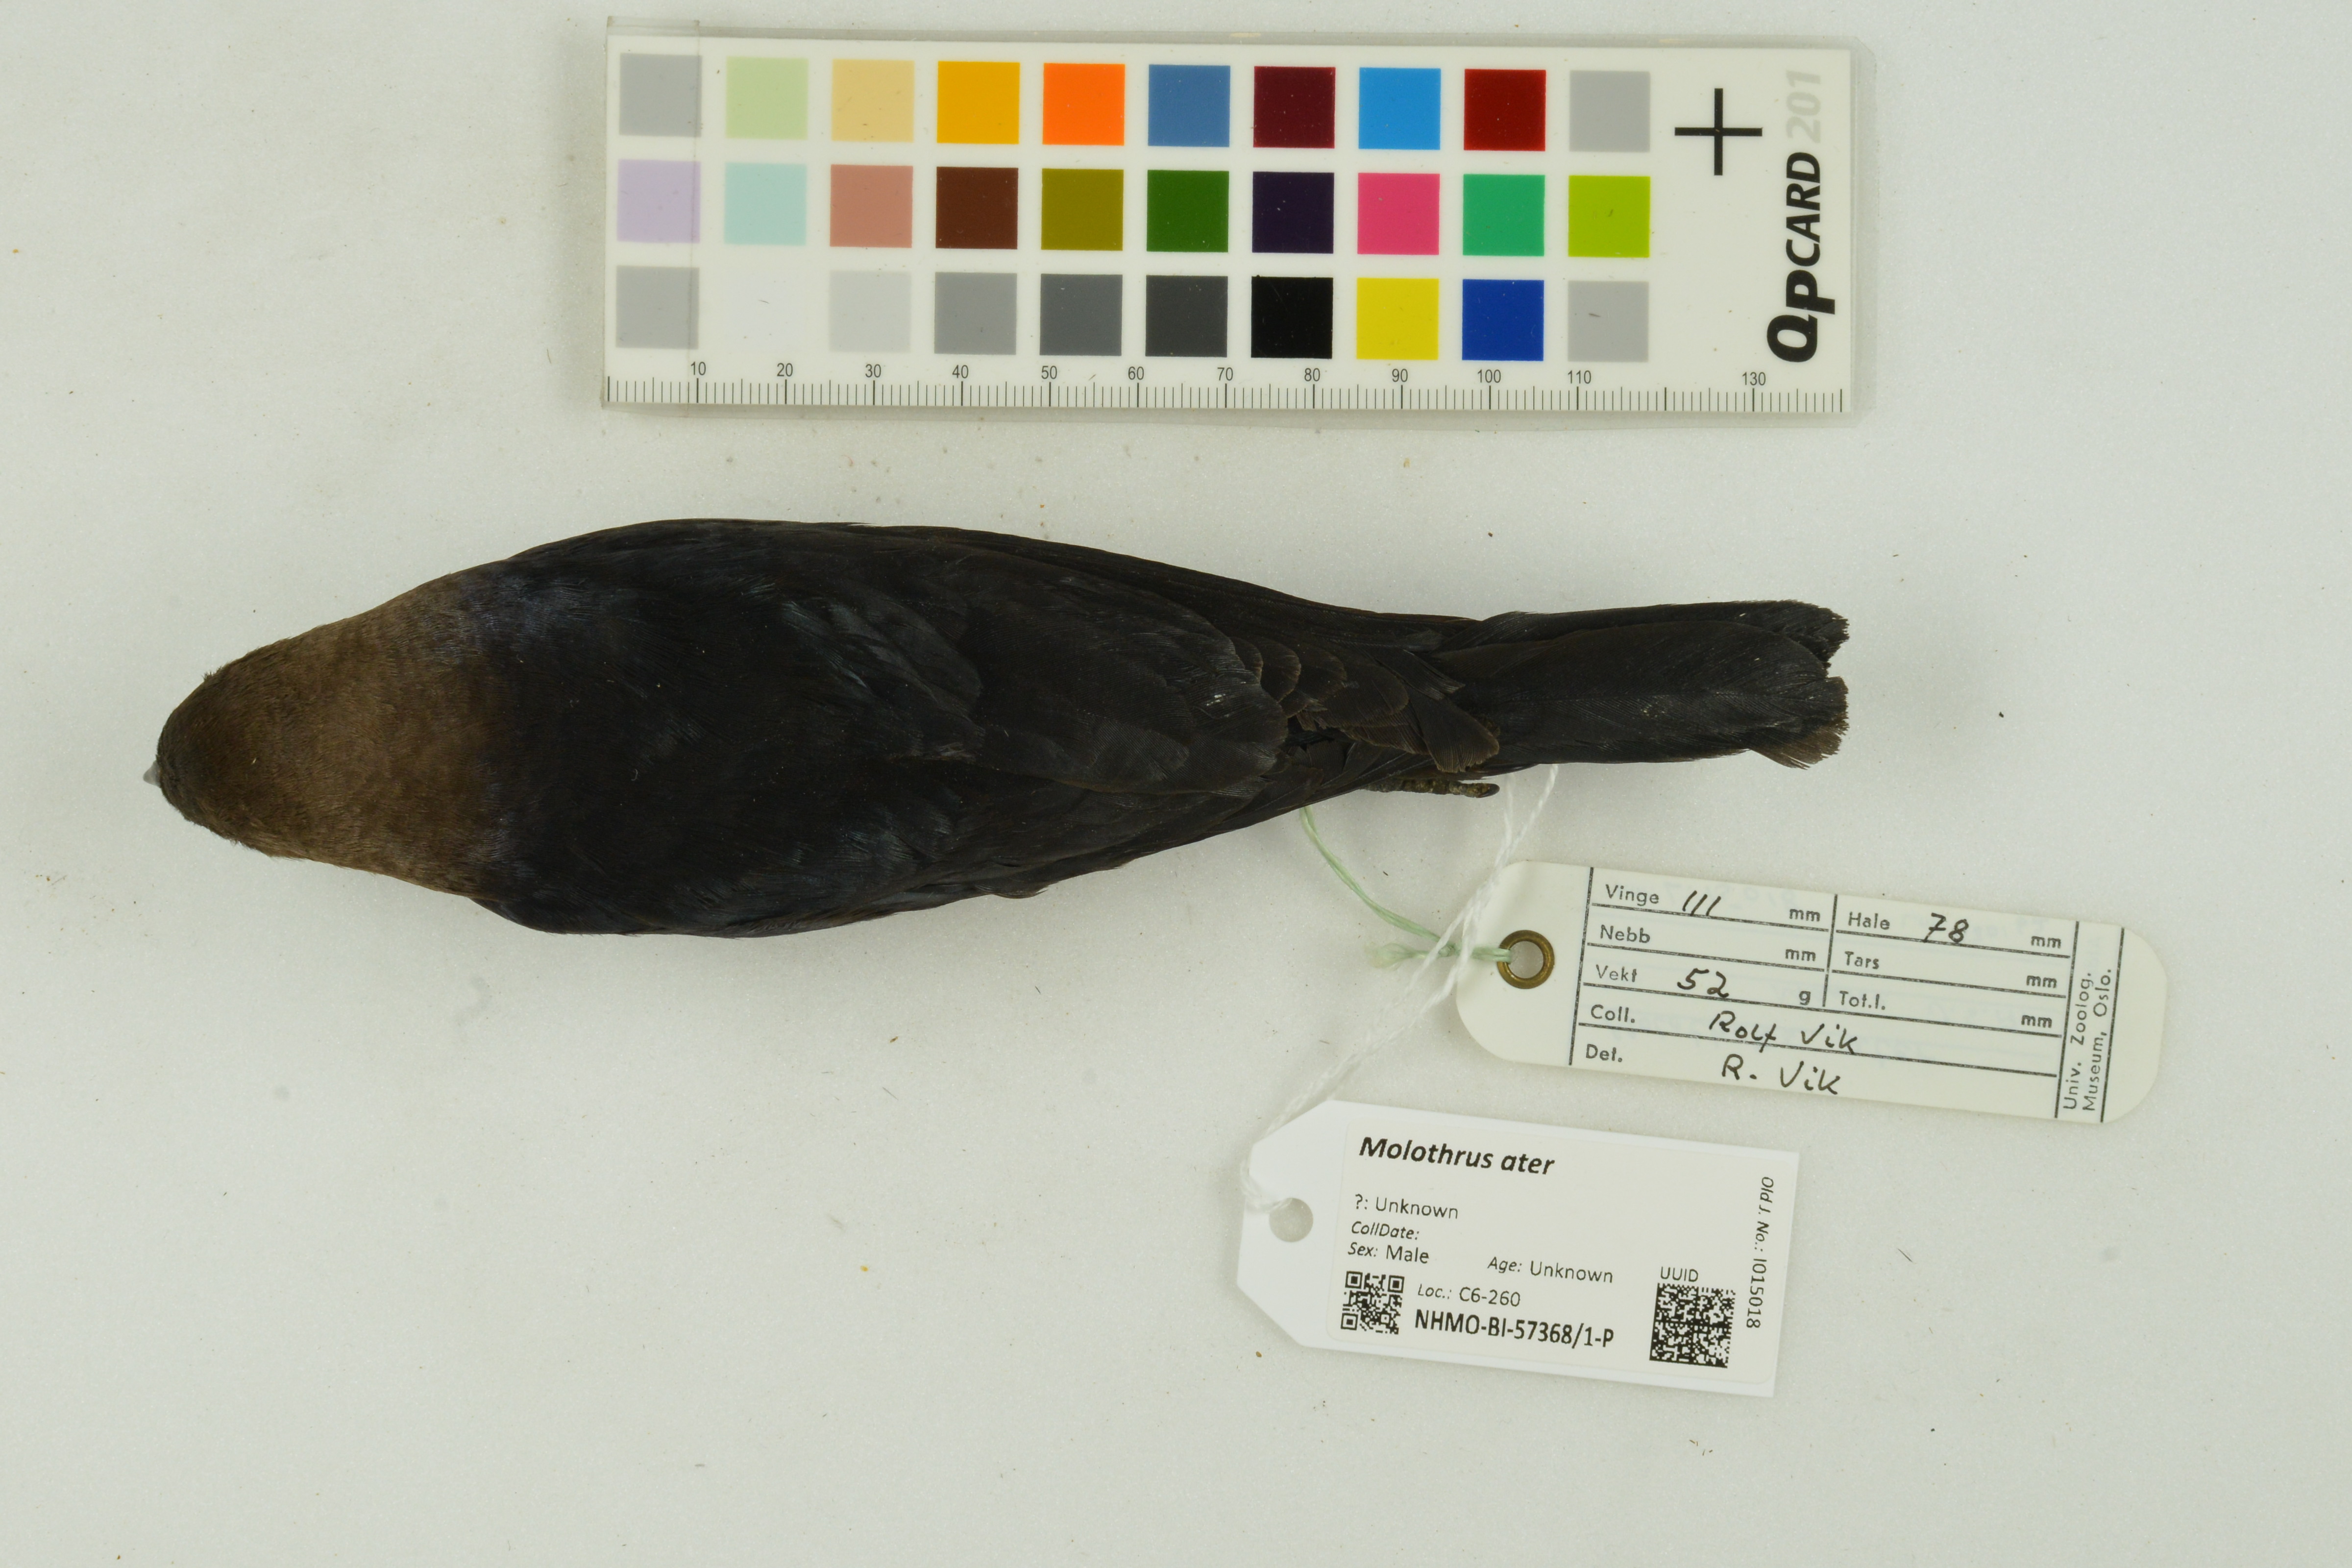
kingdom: Animalia
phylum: Chordata
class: Aves
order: Passeriformes
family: Icteridae
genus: Molothrus
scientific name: Molothrus ater
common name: Brown-headed cowbird
